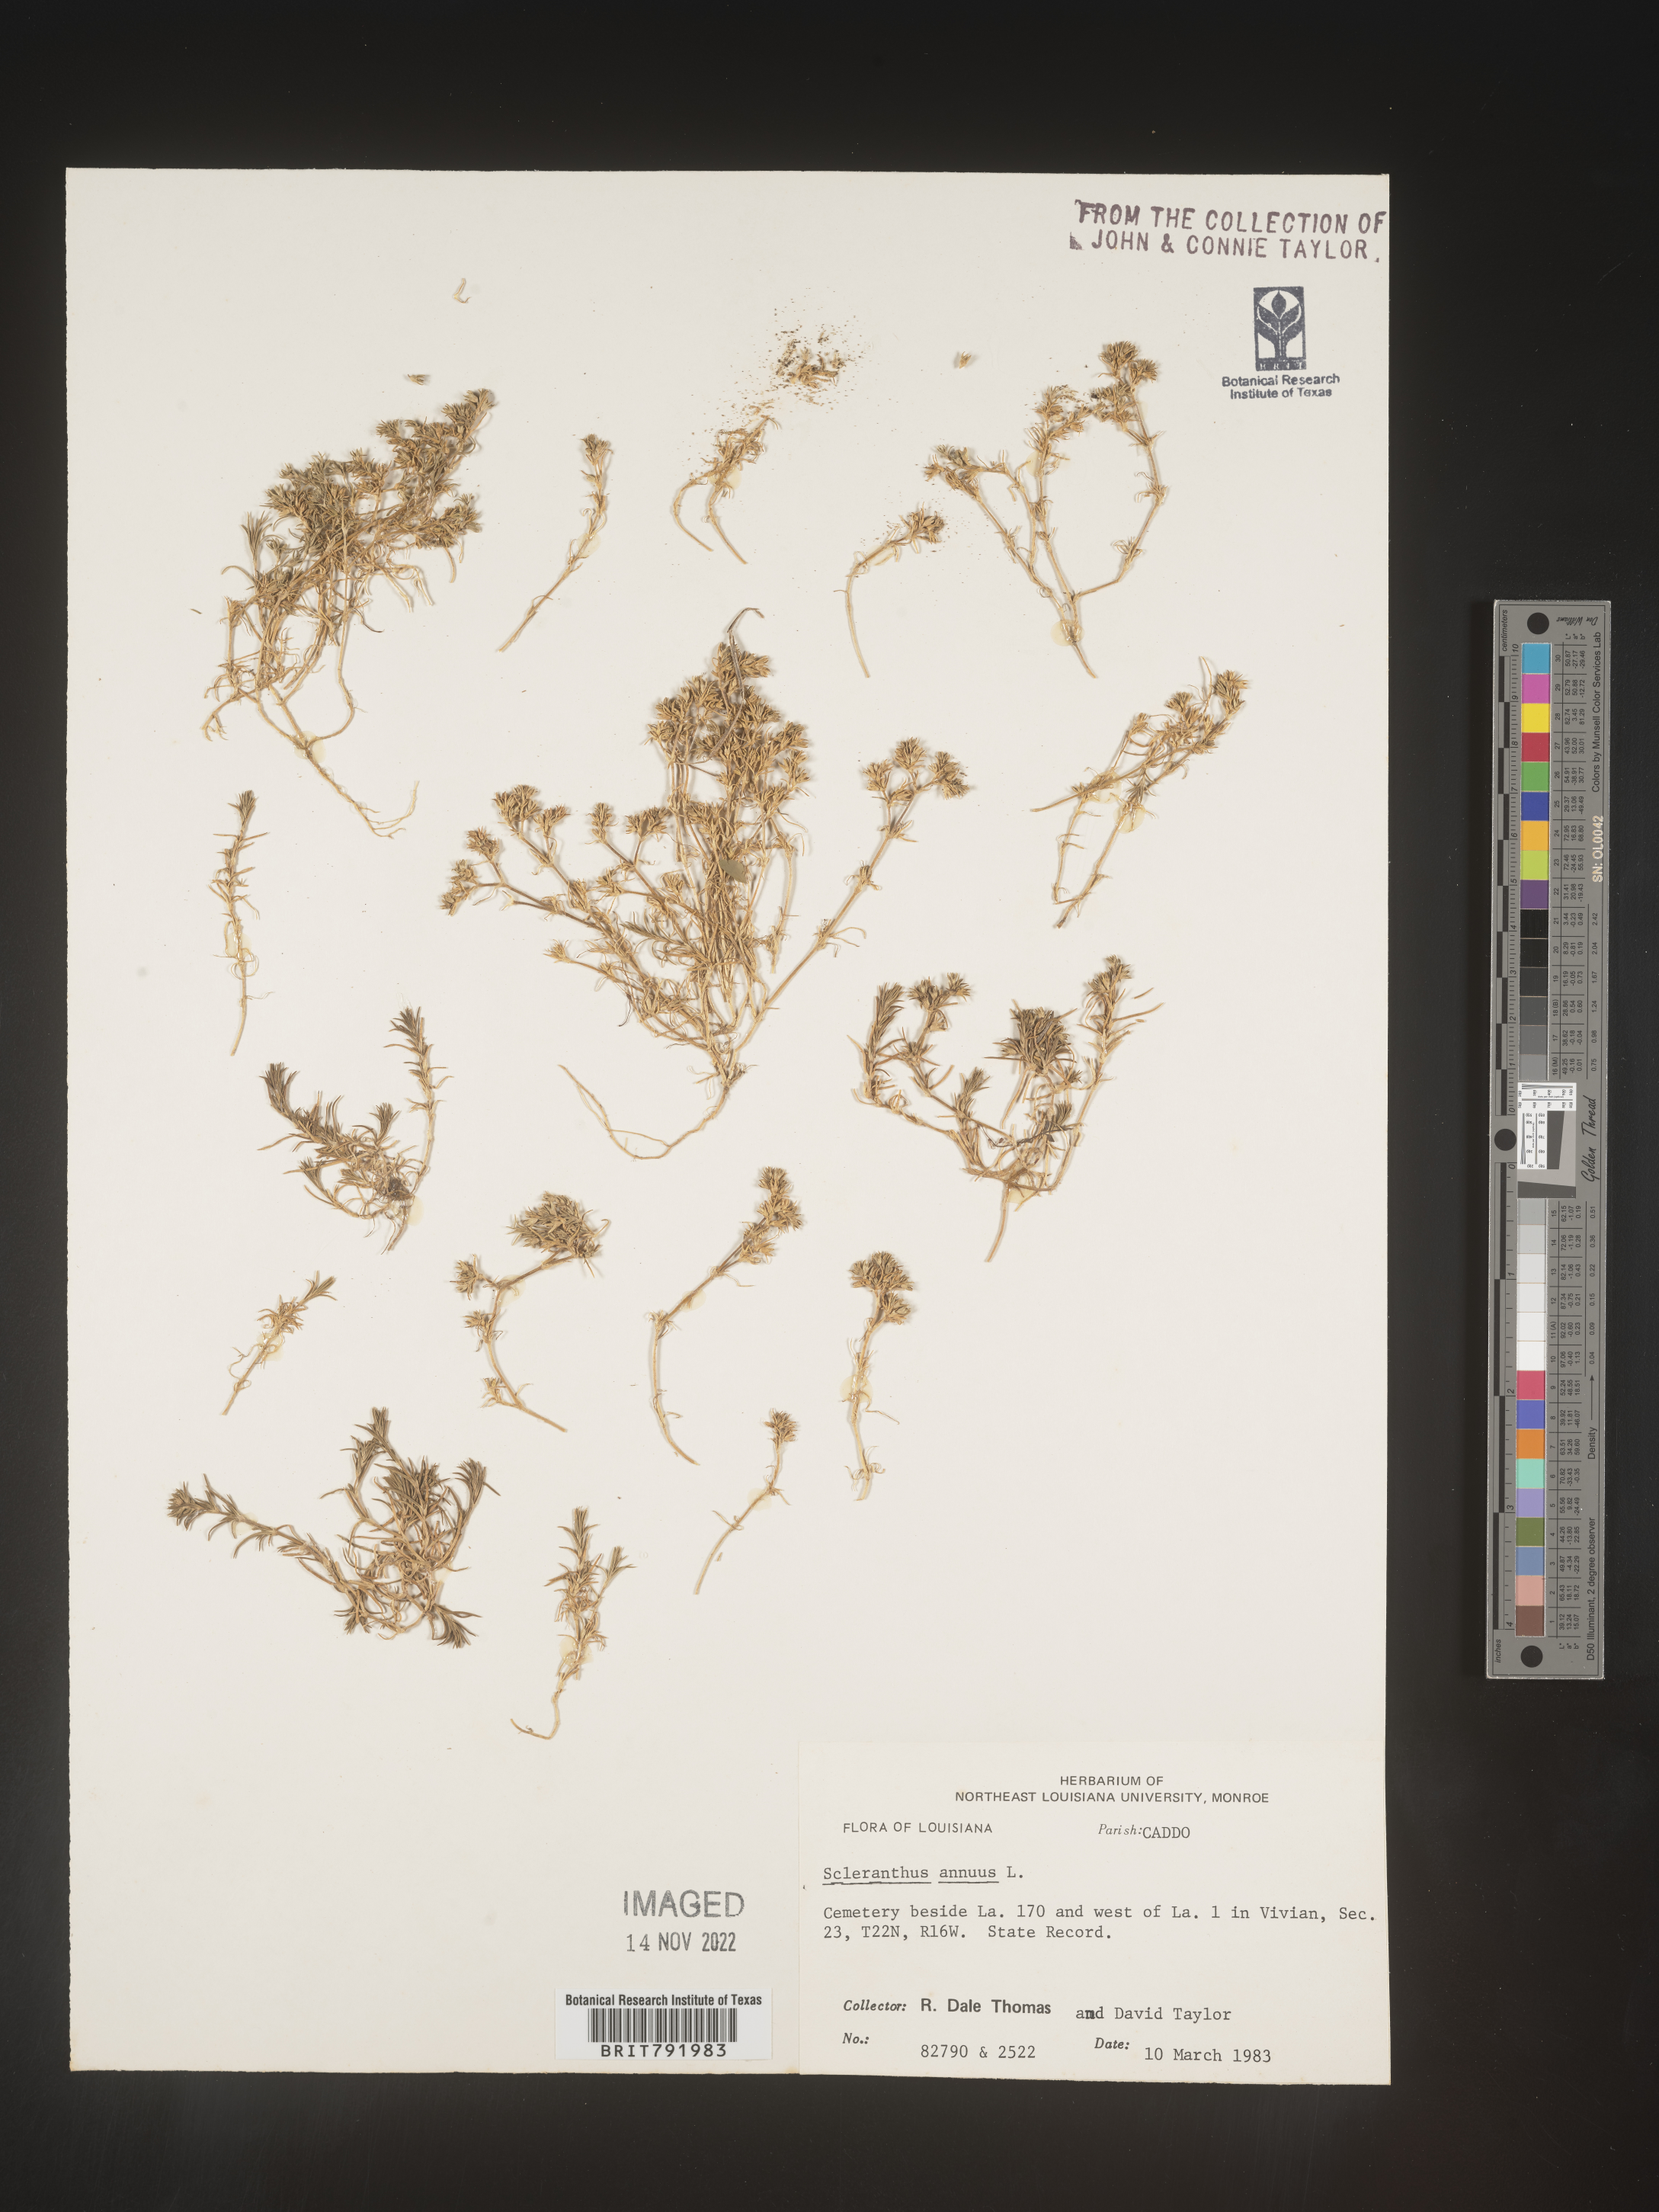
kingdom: Plantae
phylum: Tracheophyta
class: Magnoliopsida
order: Caryophyllales
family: Caryophyllaceae
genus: Scleranthus
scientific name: Scleranthus
